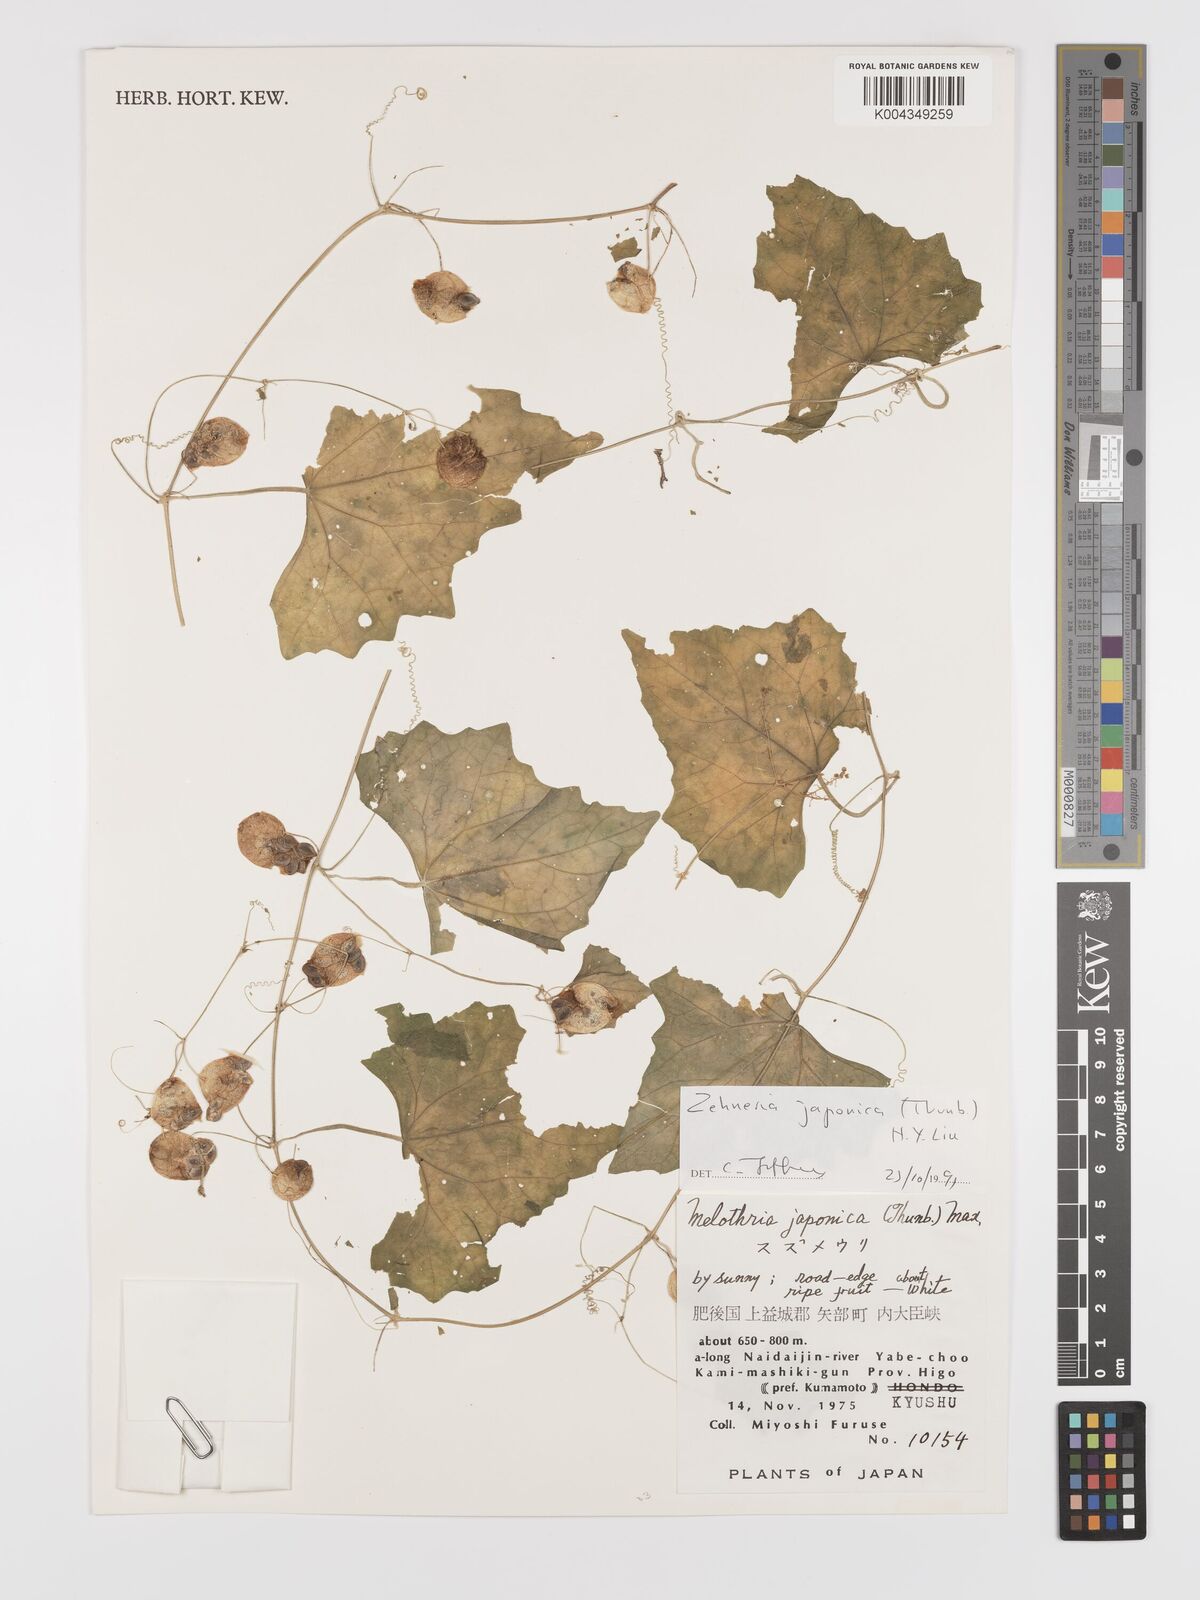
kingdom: Plantae
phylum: Tracheophyta
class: Magnoliopsida
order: Cucurbitales
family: Cucurbitaceae
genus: Zehneria
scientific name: Zehneria japonica
